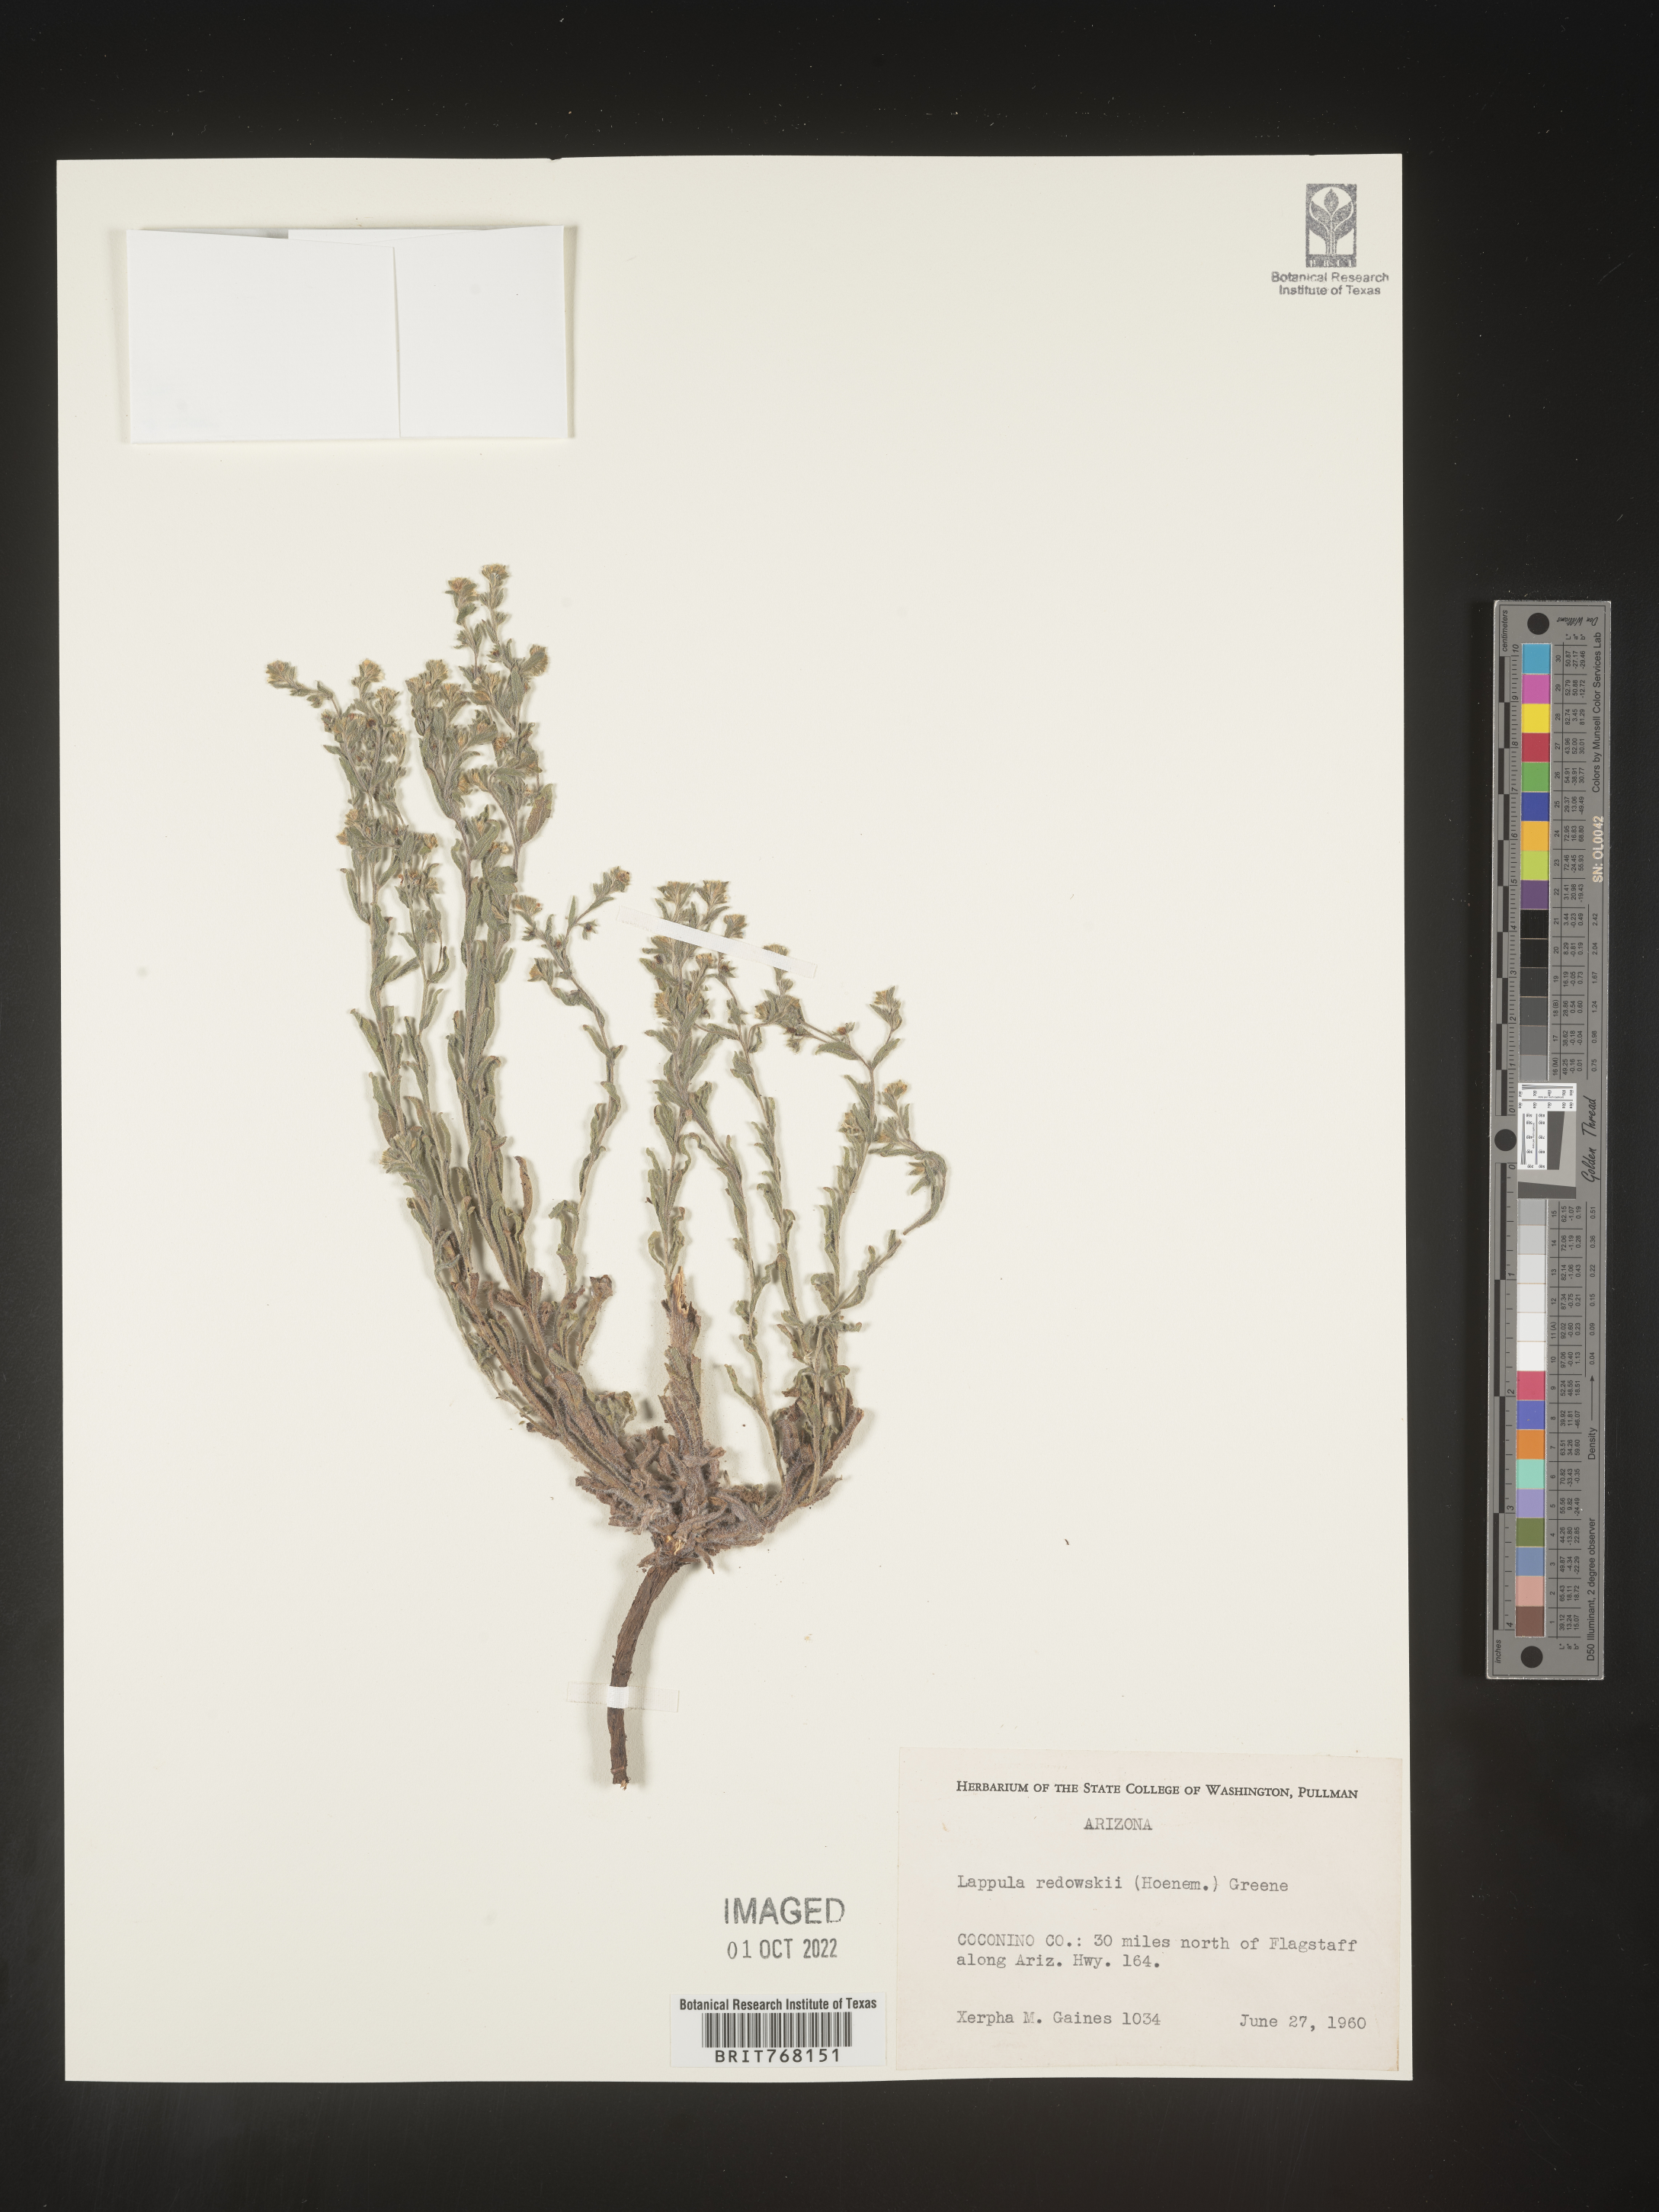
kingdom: Plantae
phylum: Tracheophyta
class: Magnoliopsida
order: Boraginales
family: Boraginaceae
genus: Lappula
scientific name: Lappula redowskii
